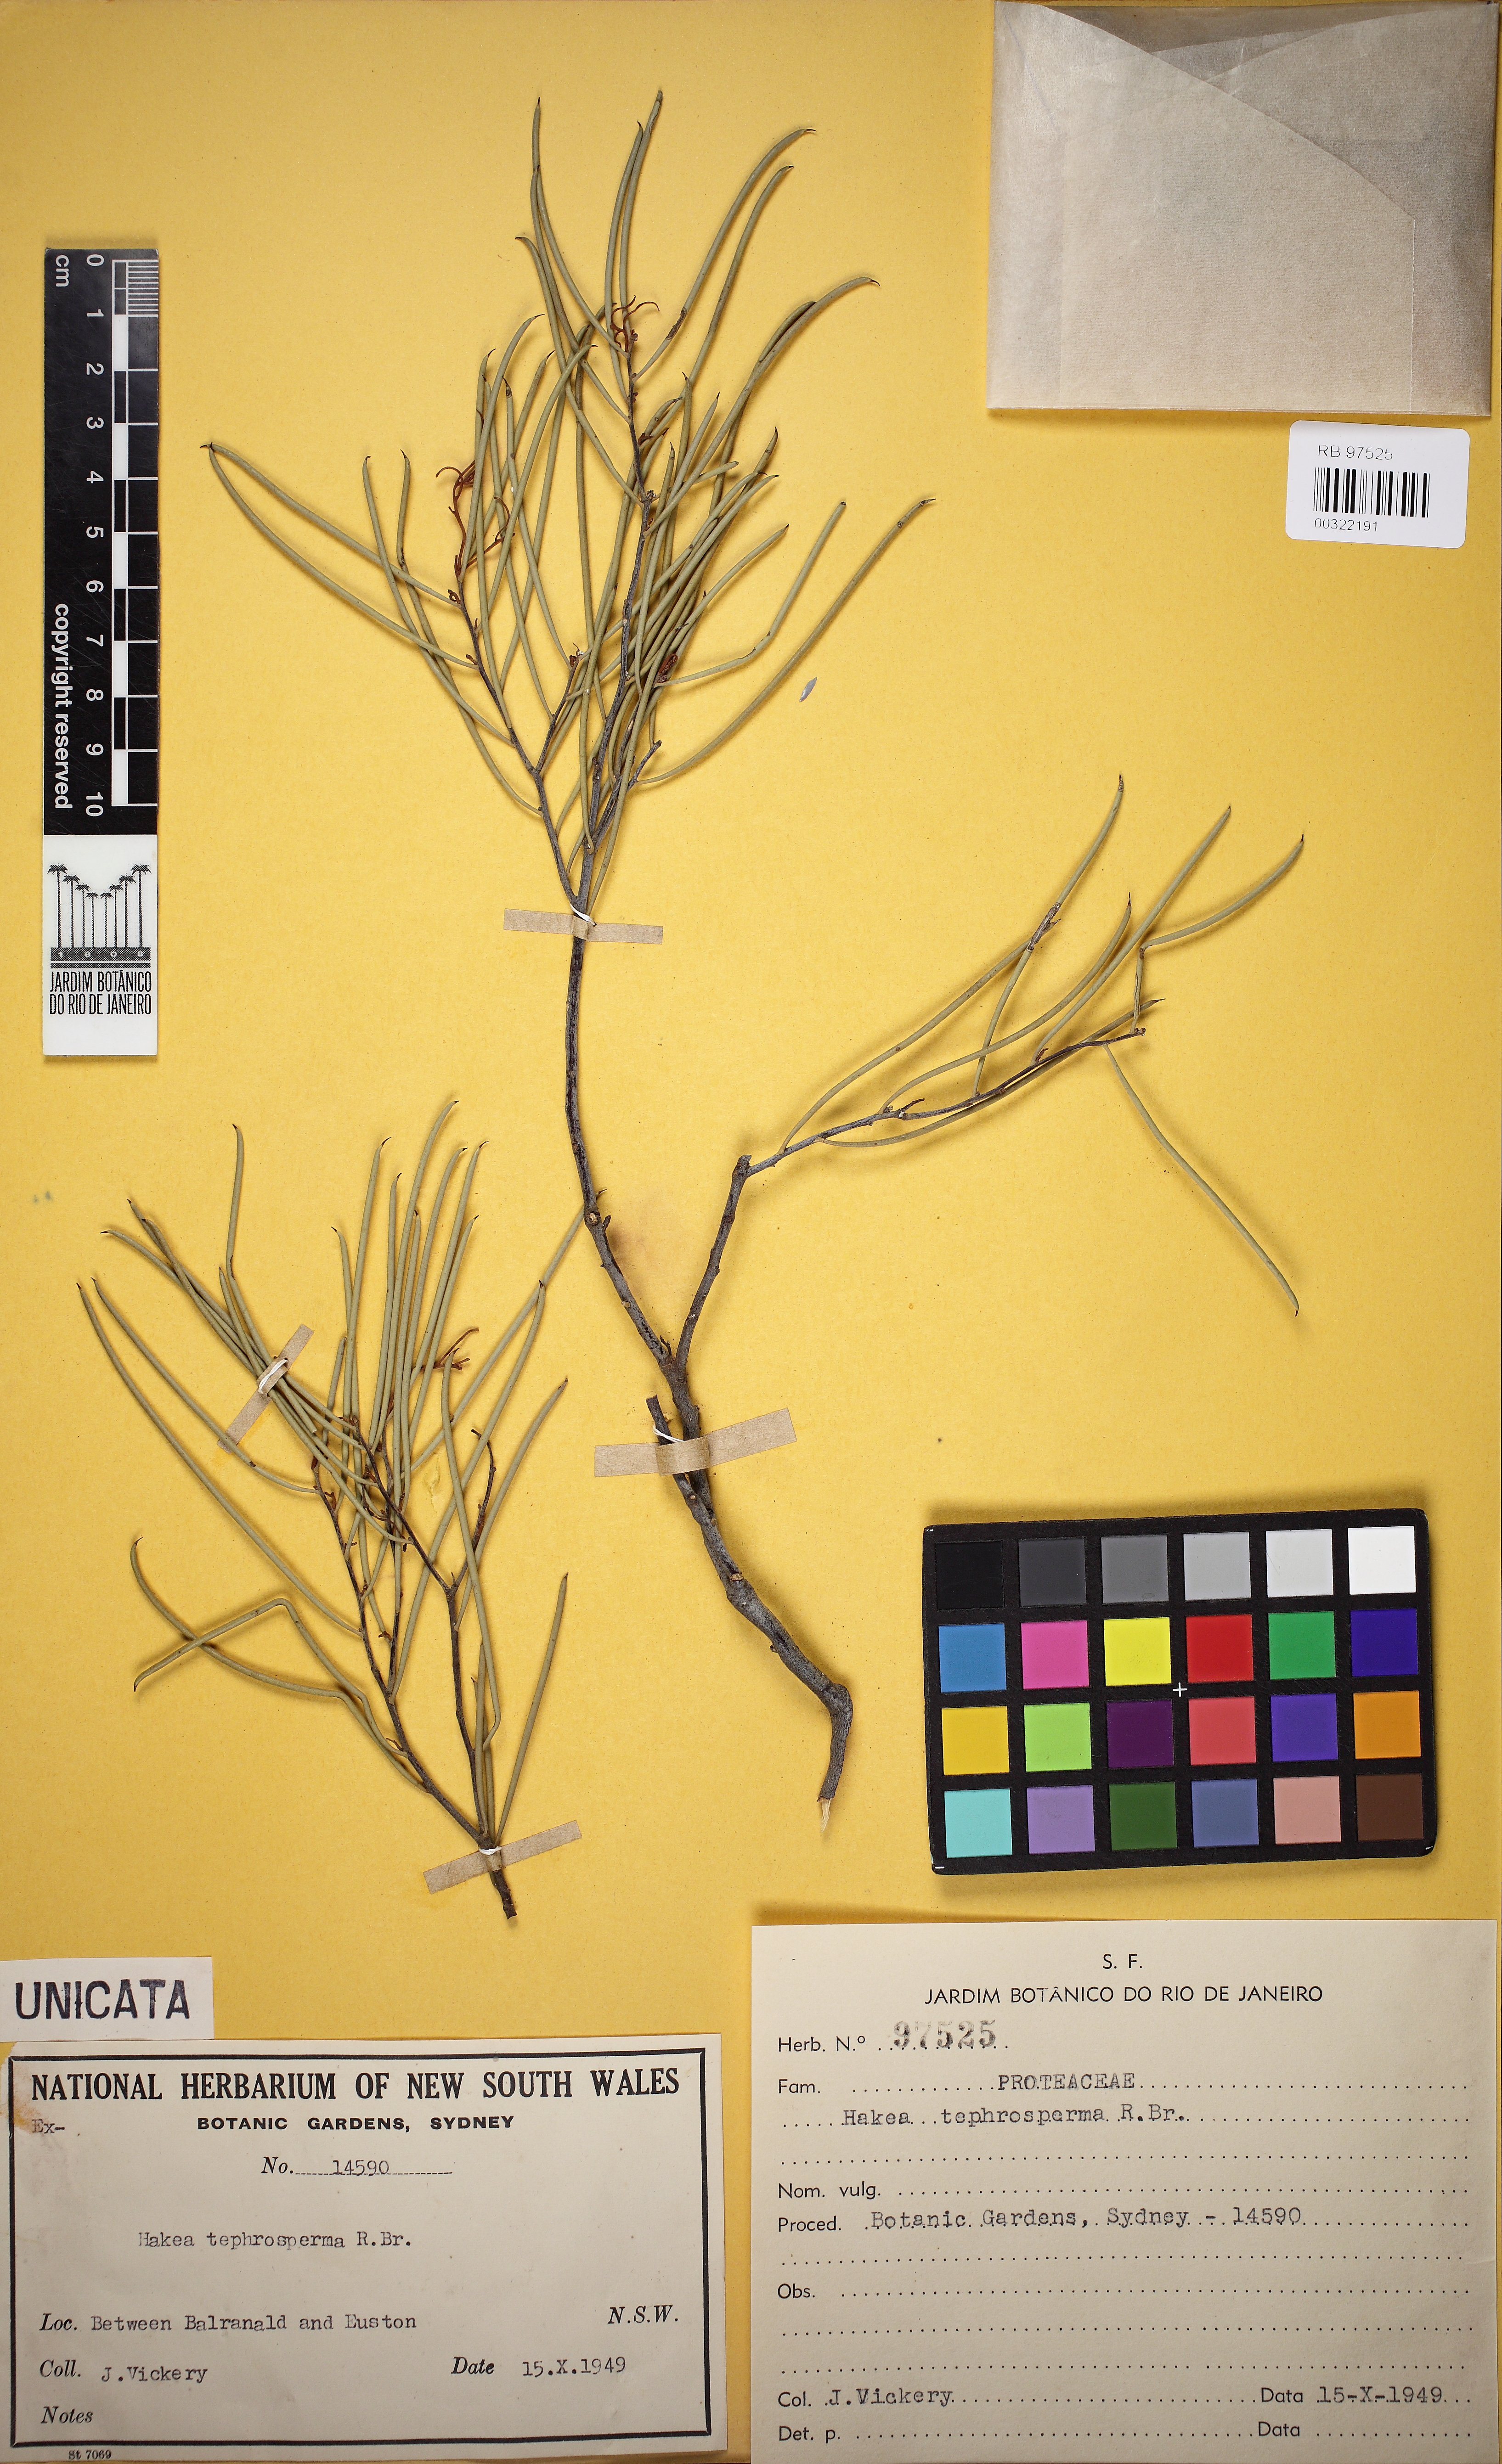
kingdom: Plantae
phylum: Tracheophyta
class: Magnoliopsida
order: Proteales
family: Proteaceae
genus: Hakea
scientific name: Hakea tephrosperma
